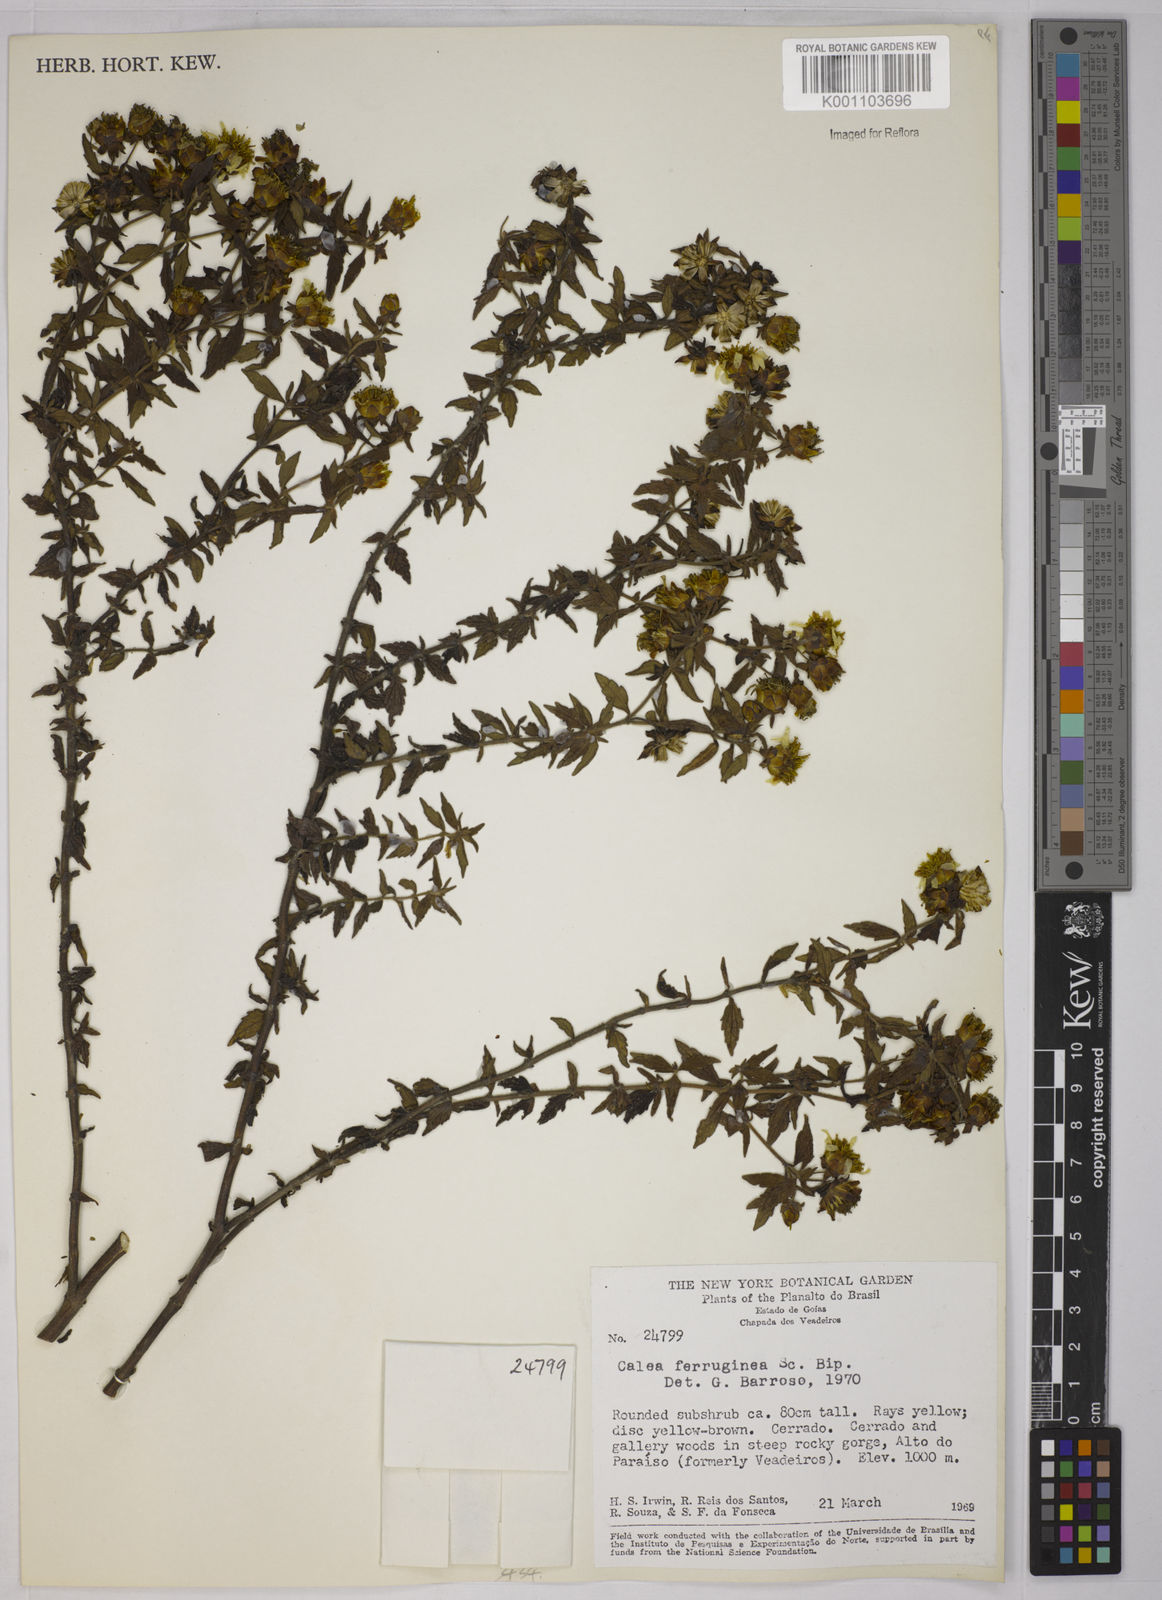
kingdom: Plantae
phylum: Tracheophyta
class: Magnoliopsida
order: Asterales
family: Asteraceae
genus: Calea
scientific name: Calea ferruginea
